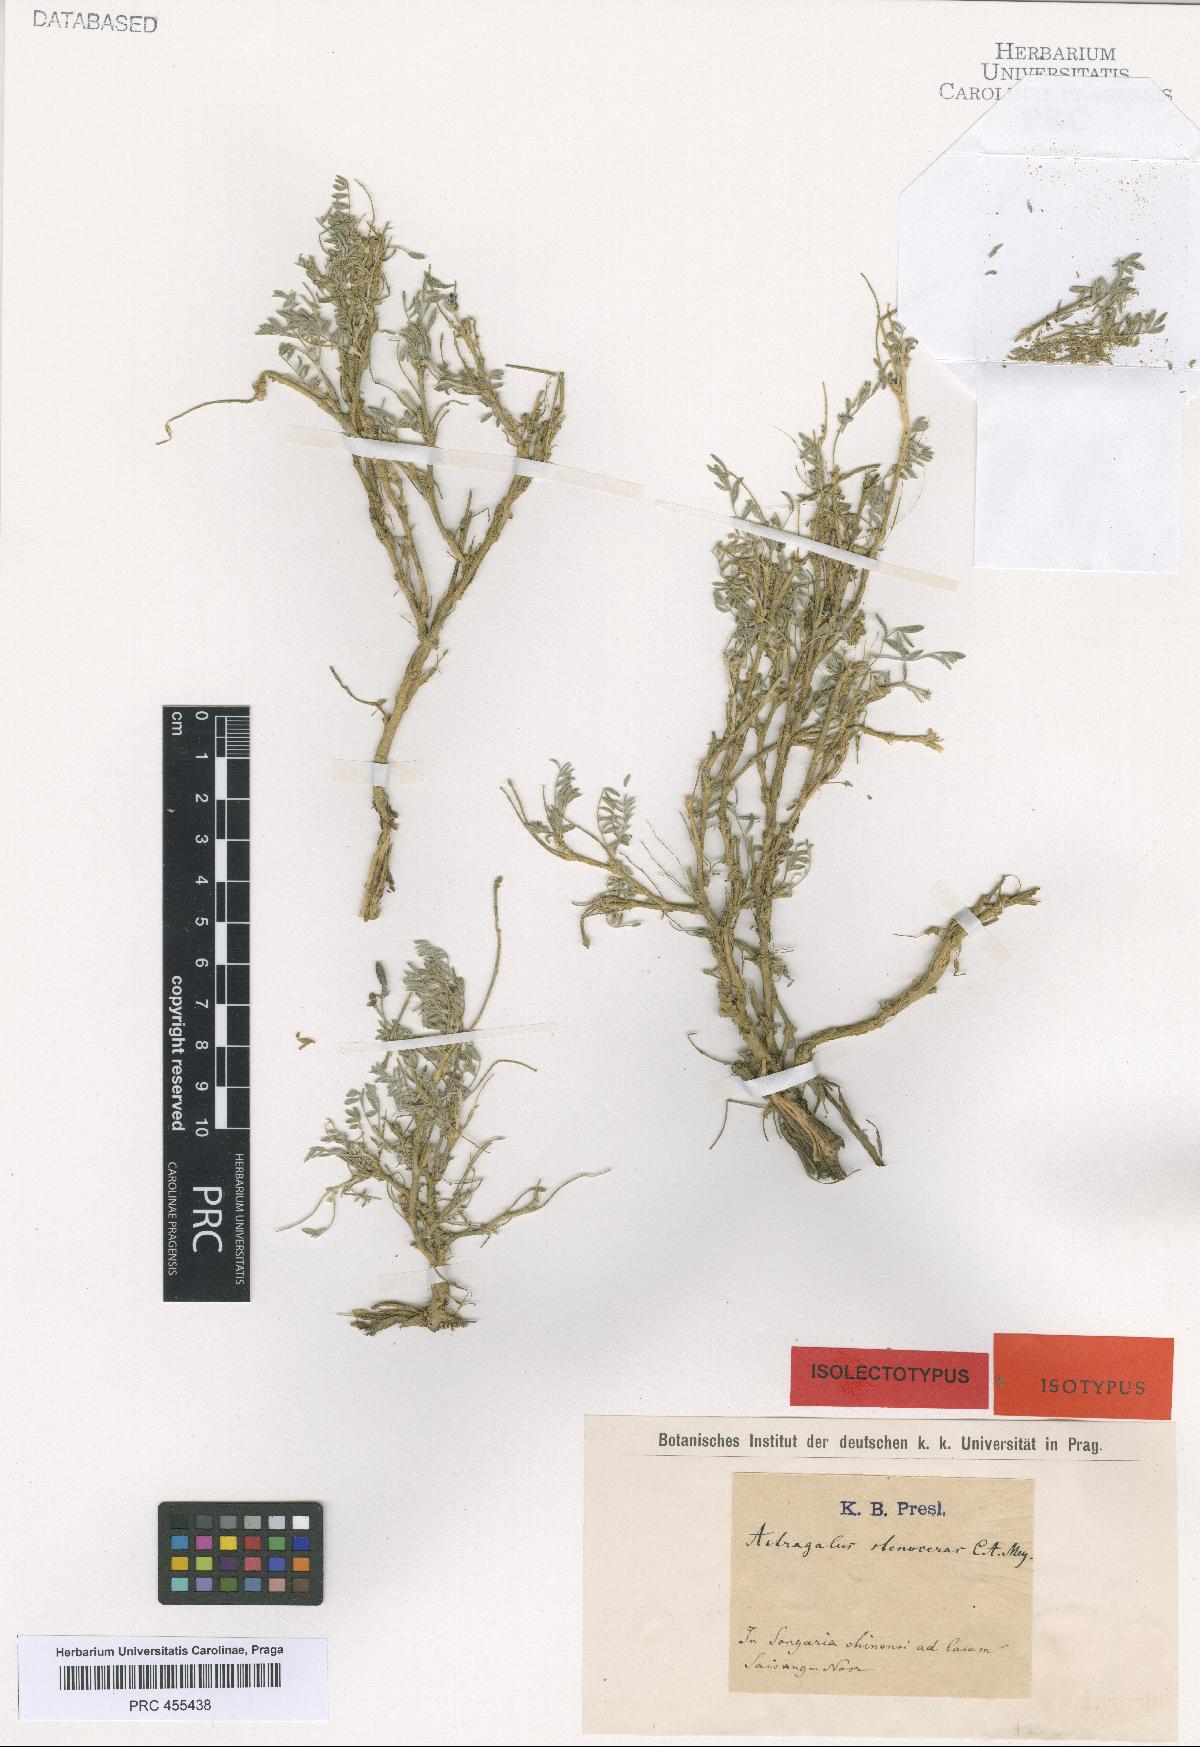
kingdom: Plantae
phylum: Tracheophyta
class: Magnoliopsida
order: Fabales
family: Fabaceae
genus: Astragalus
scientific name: Astragalus stenoceras
